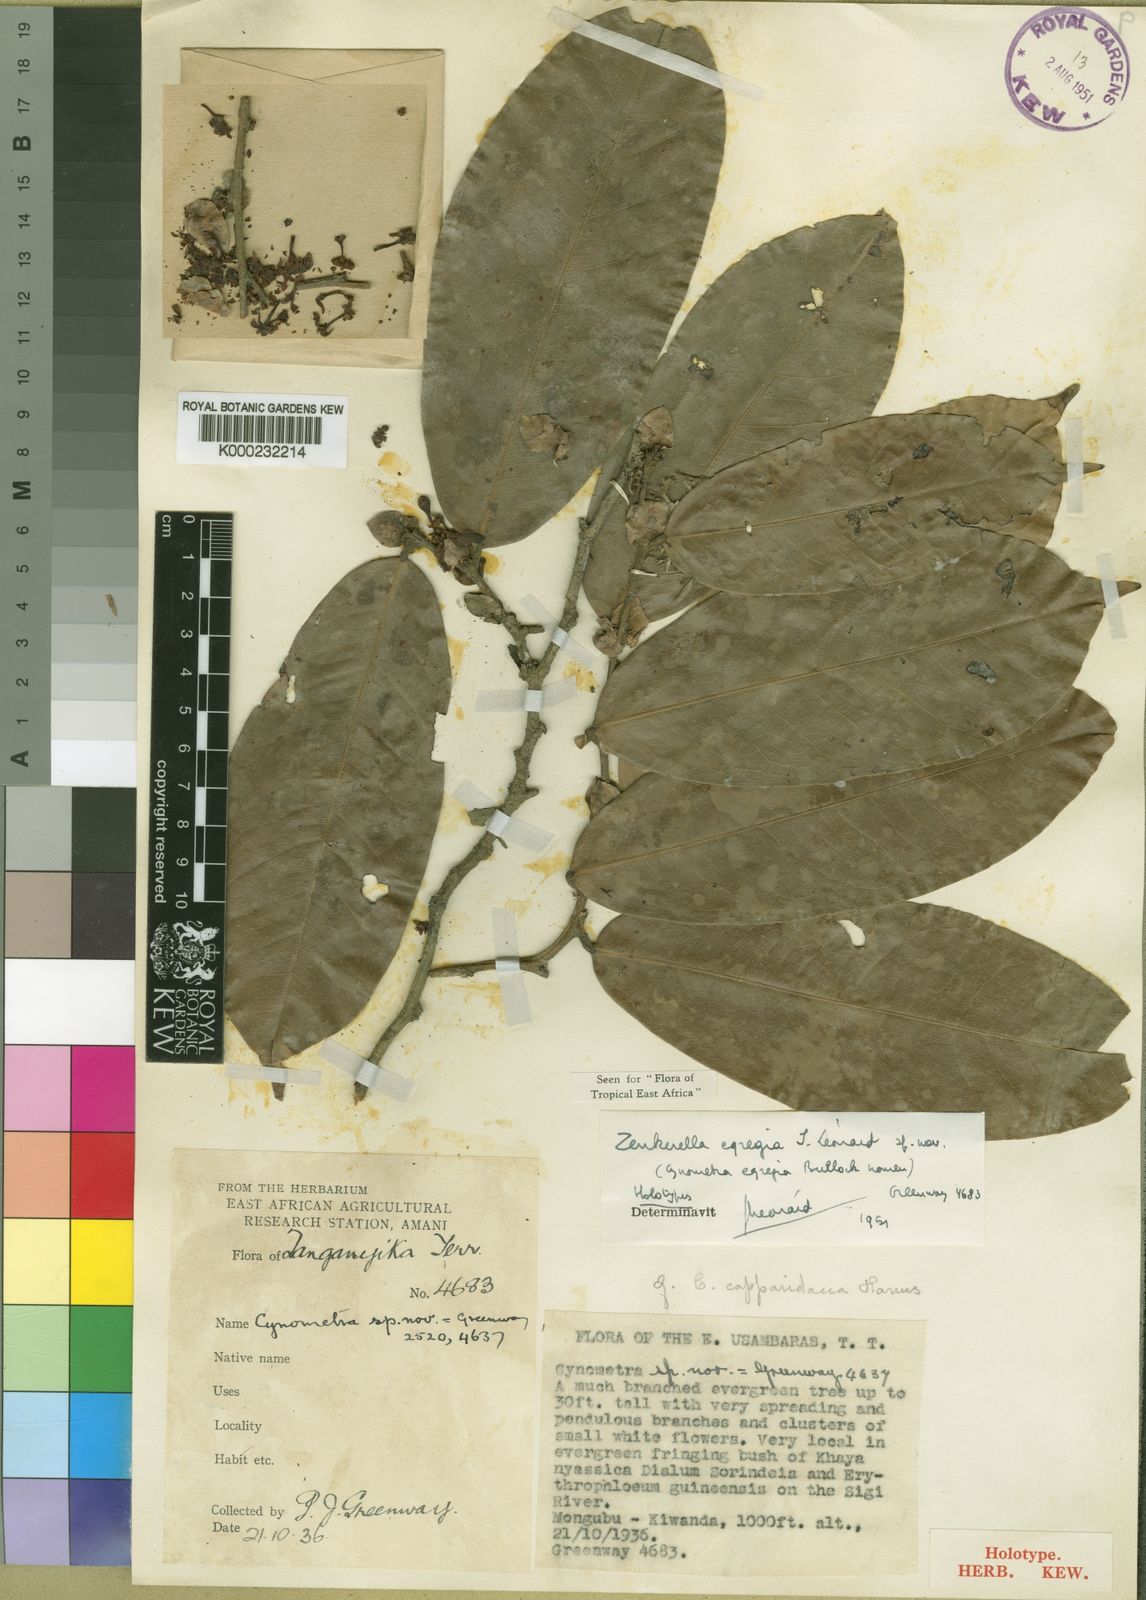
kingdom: Plantae
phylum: Tracheophyta
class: Magnoliopsida
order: Fabales
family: Fabaceae
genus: Zenkerella
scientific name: Zenkerella
